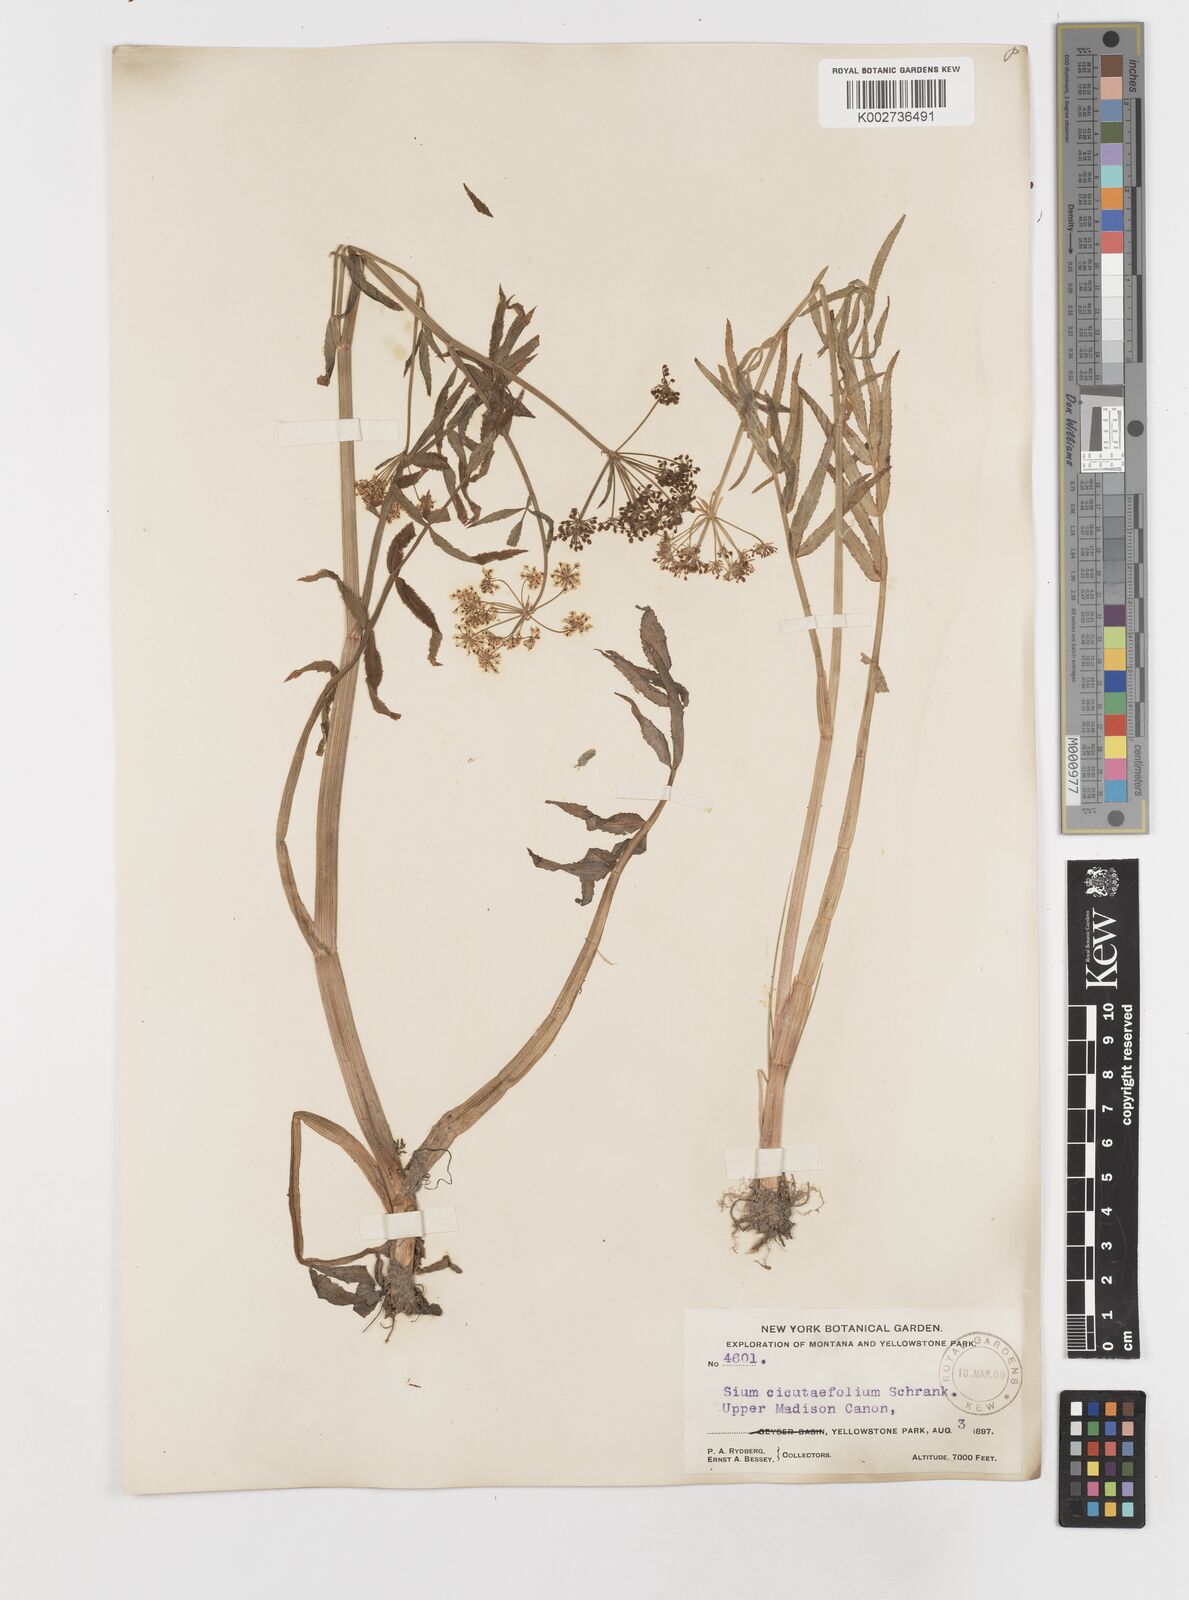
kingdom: Plantae
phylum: Tracheophyta
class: Magnoliopsida
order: Apiales
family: Apiaceae
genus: Sium
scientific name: Sium suave
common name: Hemlock water-parsnip
